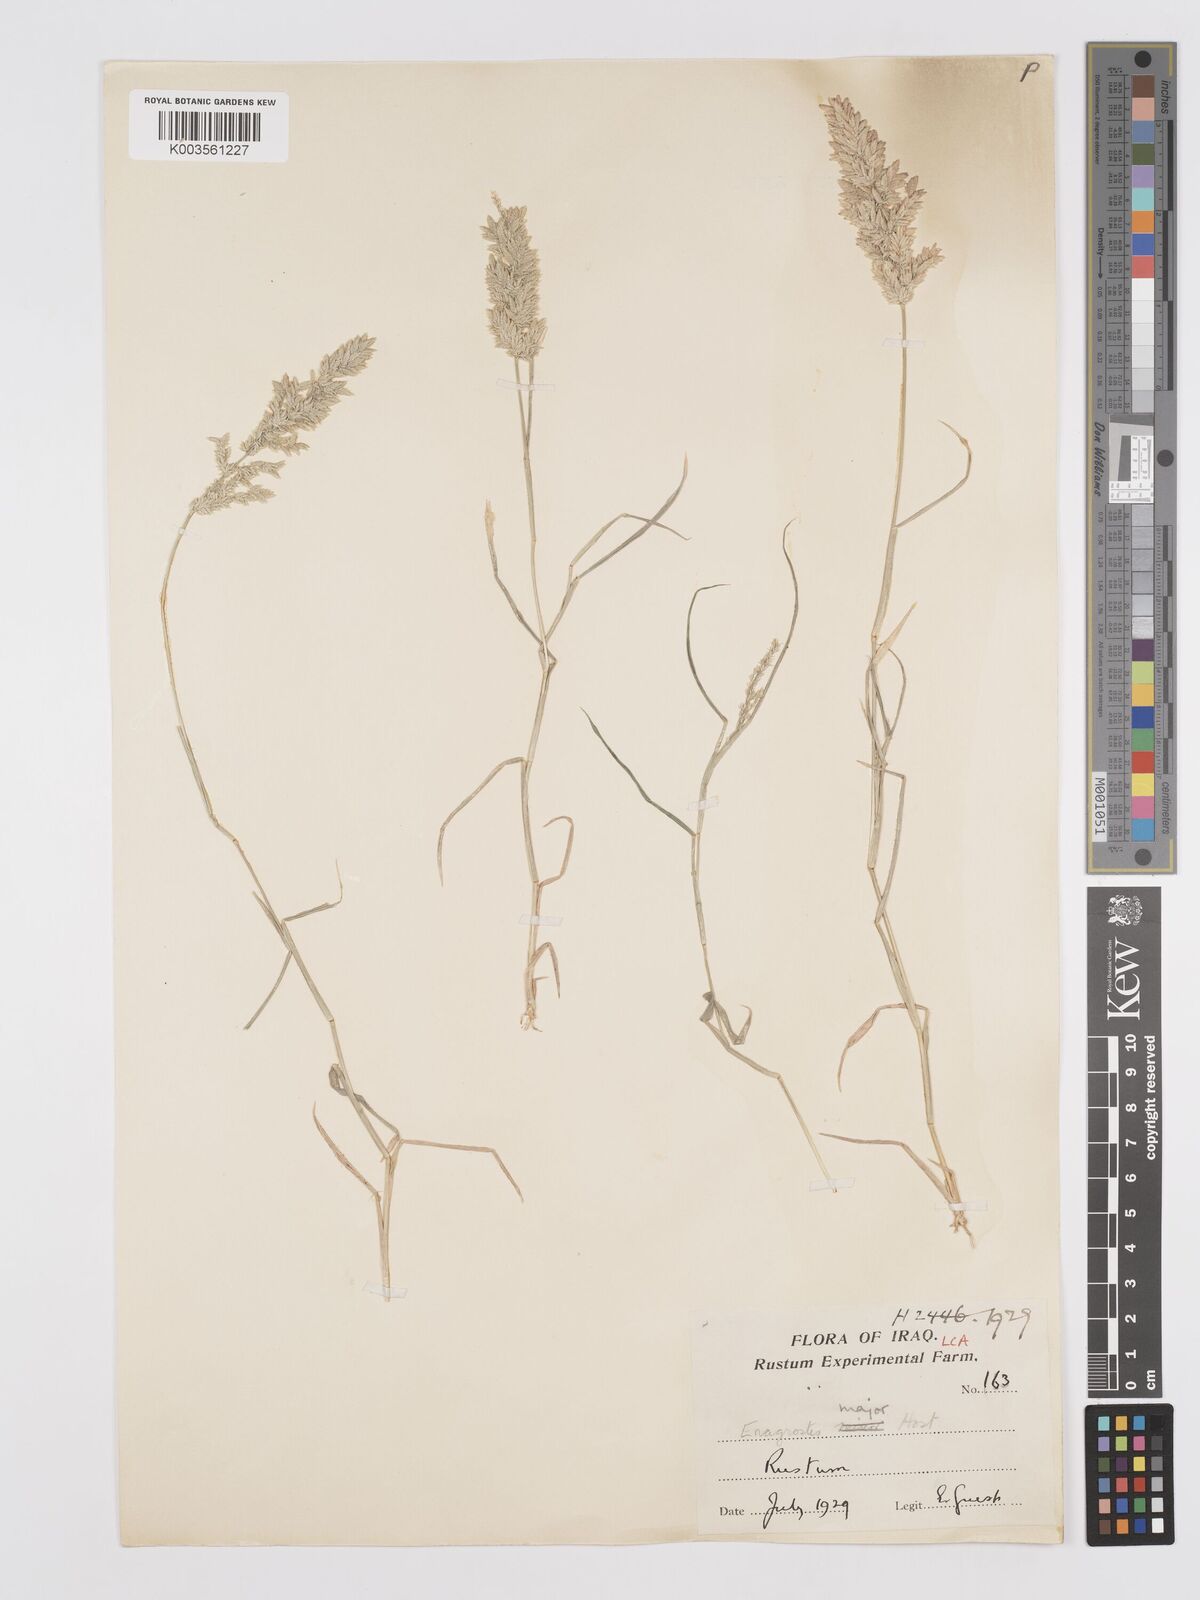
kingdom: Plantae
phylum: Tracheophyta
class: Liliopsida
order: Poales
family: Poaceae
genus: Eragrostis
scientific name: Eragrostis cilianensis
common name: Stinkgrass
